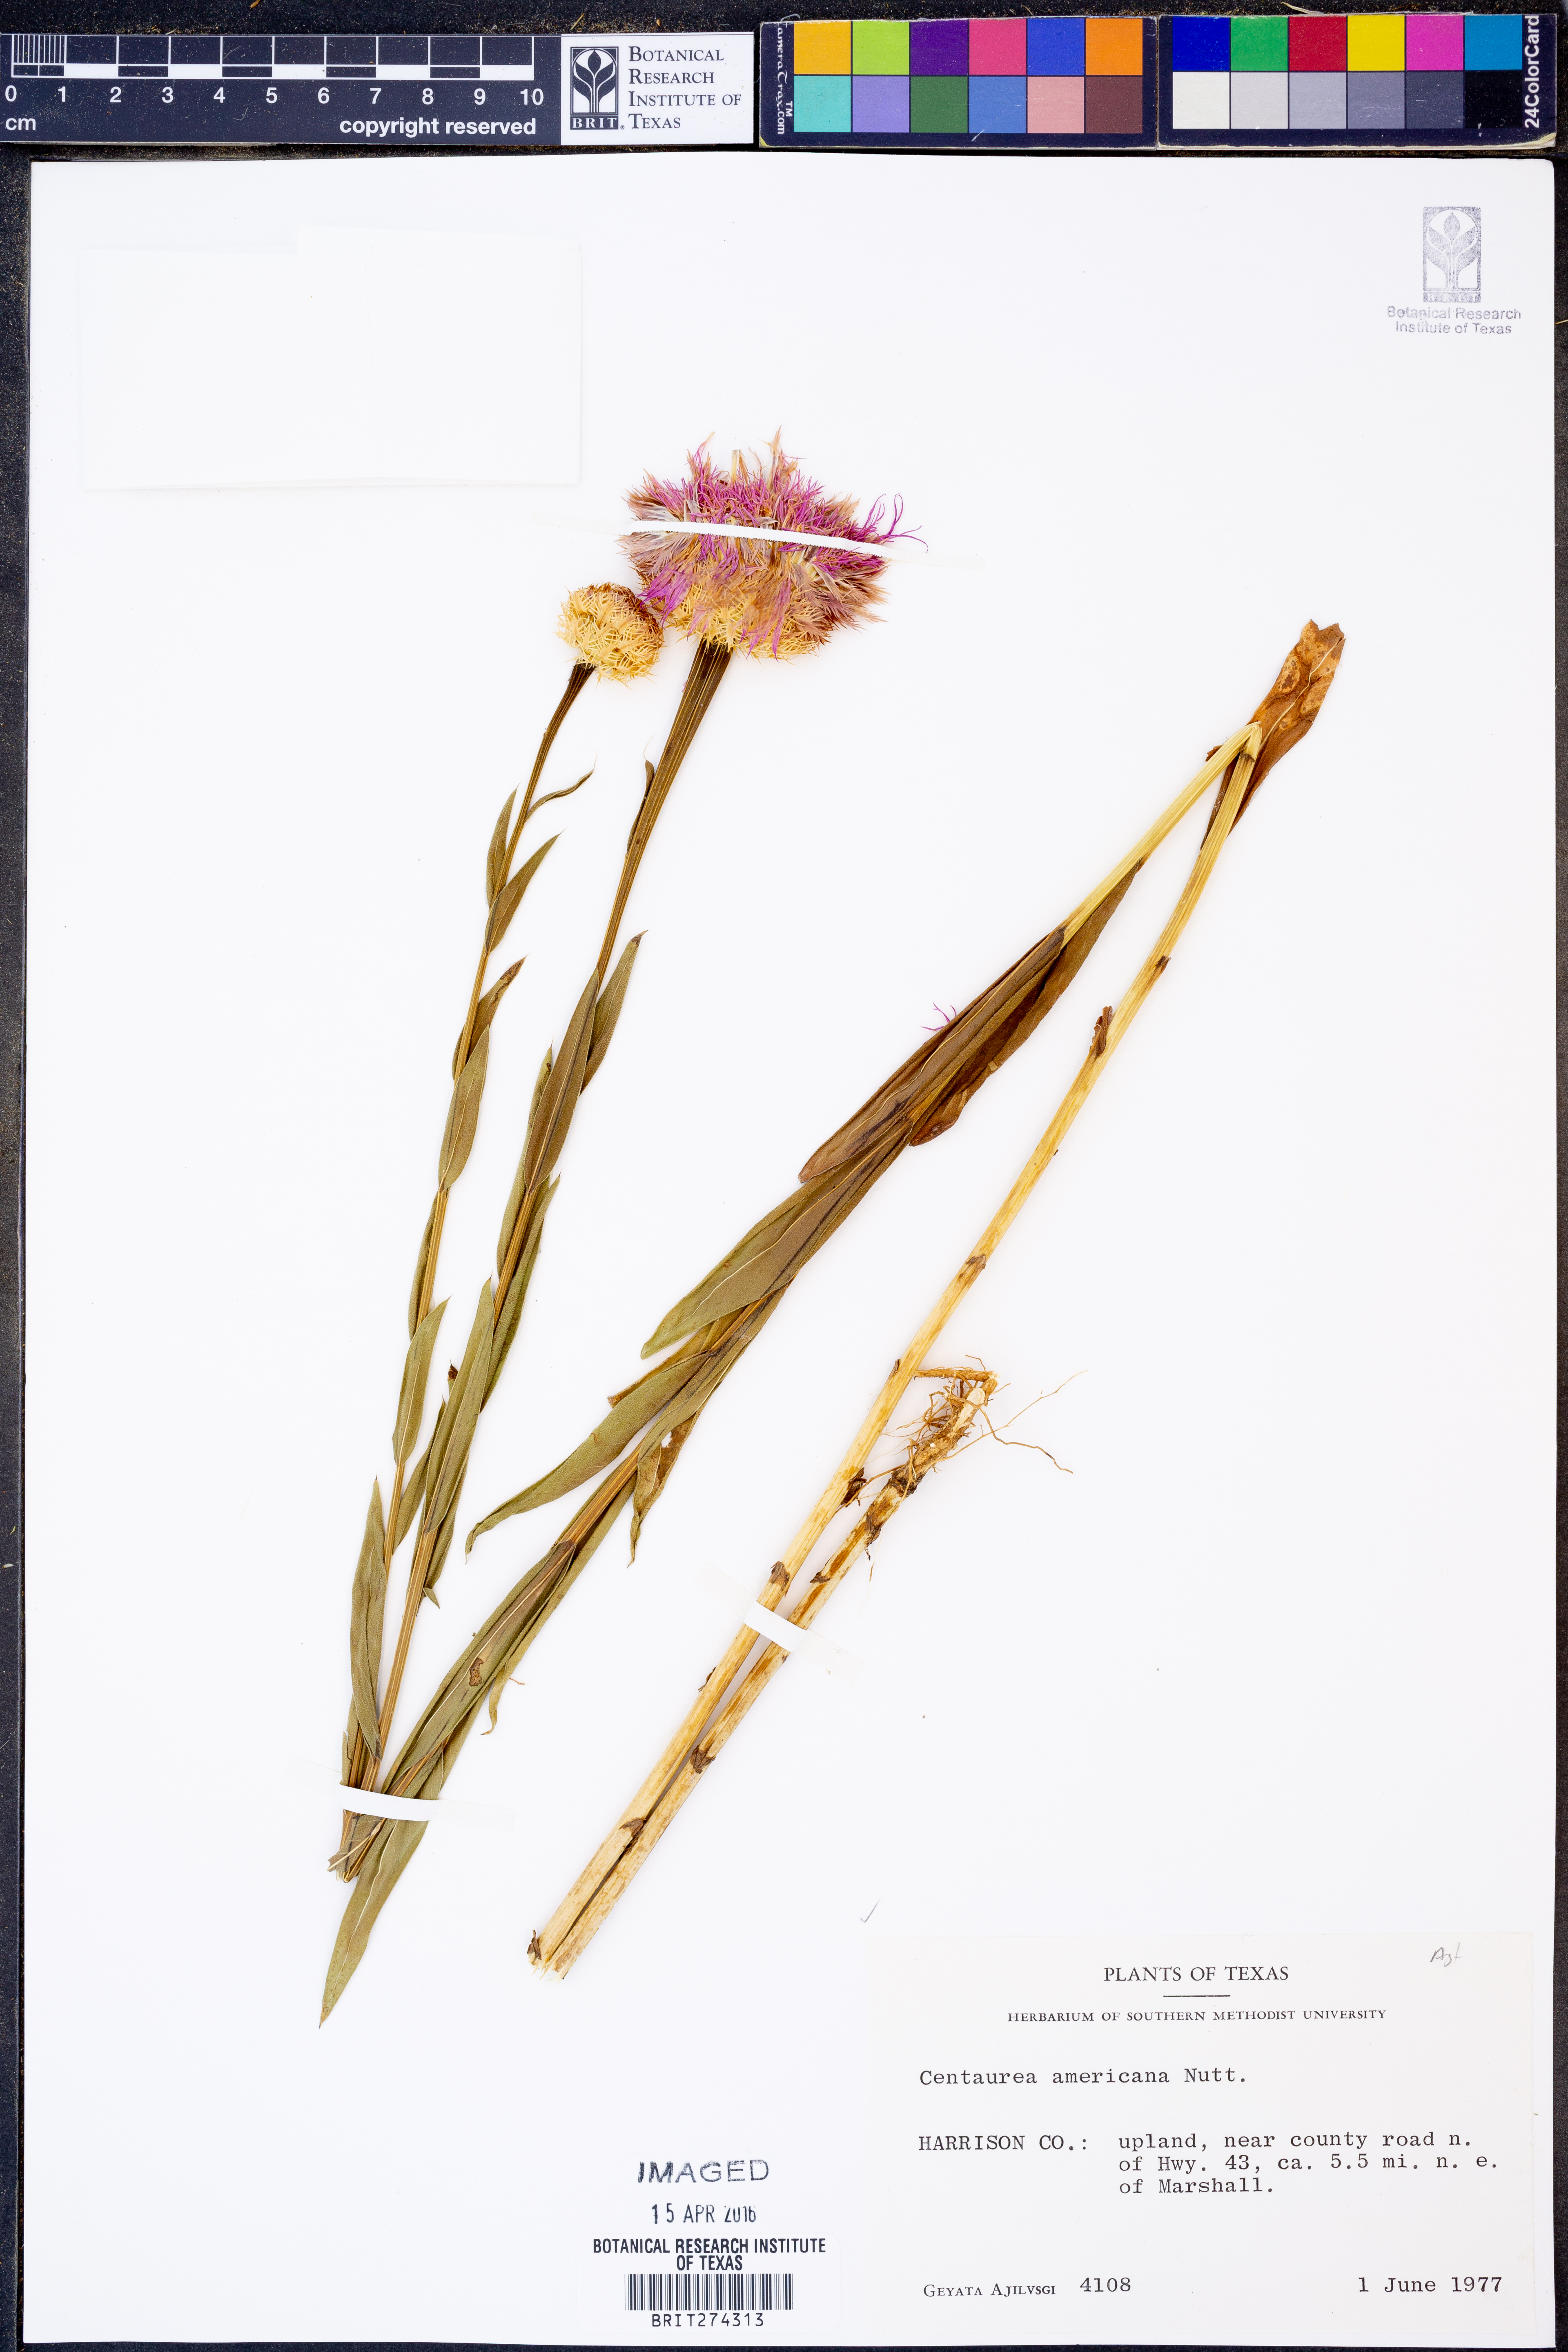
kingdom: Plantae
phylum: Tracheophyta
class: Magnoliopsida
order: Asterales
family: Asteraceae
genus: Plectocephalus
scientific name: Plectocephalus americanus
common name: American basket-flower
